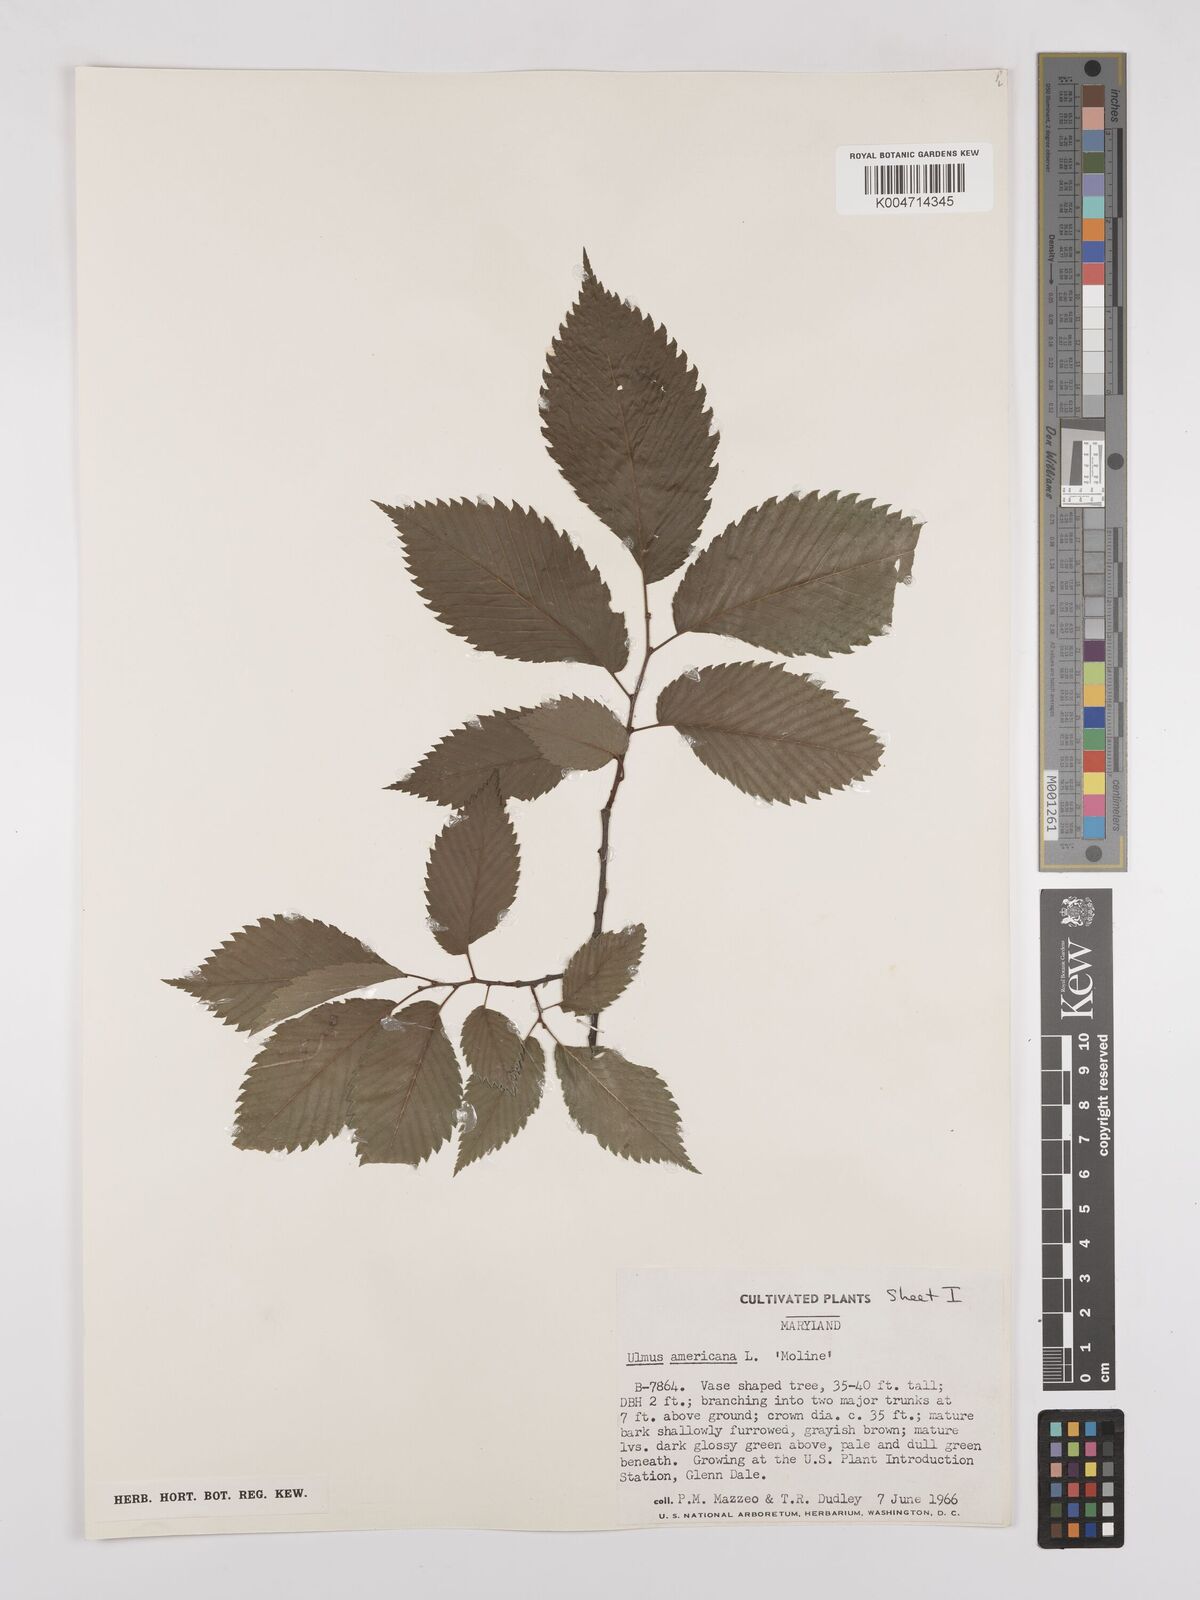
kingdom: Plantae
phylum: Tracheophyta
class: Magnoliopsida
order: Rosales
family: Ulmaceae
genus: Ulmus
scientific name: Ulmus americana
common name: American elm
